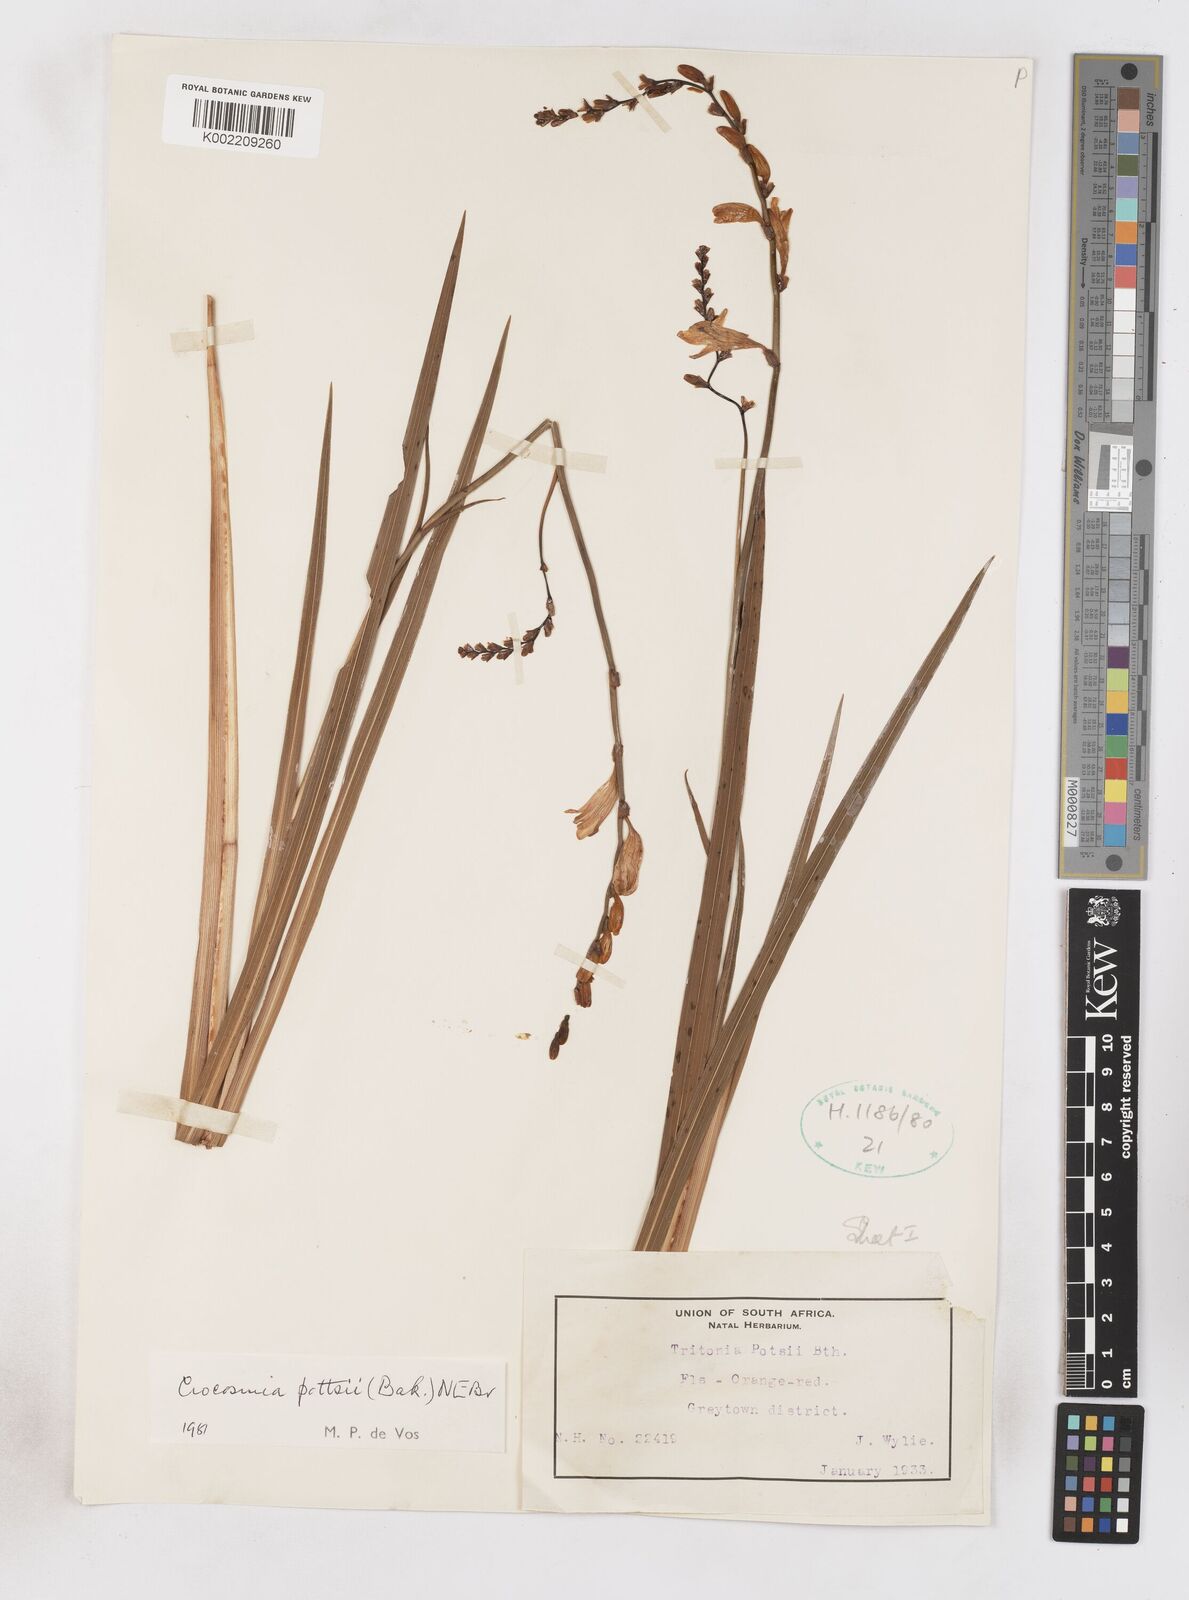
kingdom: Plantae
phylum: Tracheophyta
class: Liliopsida
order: Asparagales
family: Iridaceae
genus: Crocosmia
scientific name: Crocosmia pottsii
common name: Pott's montbretia
